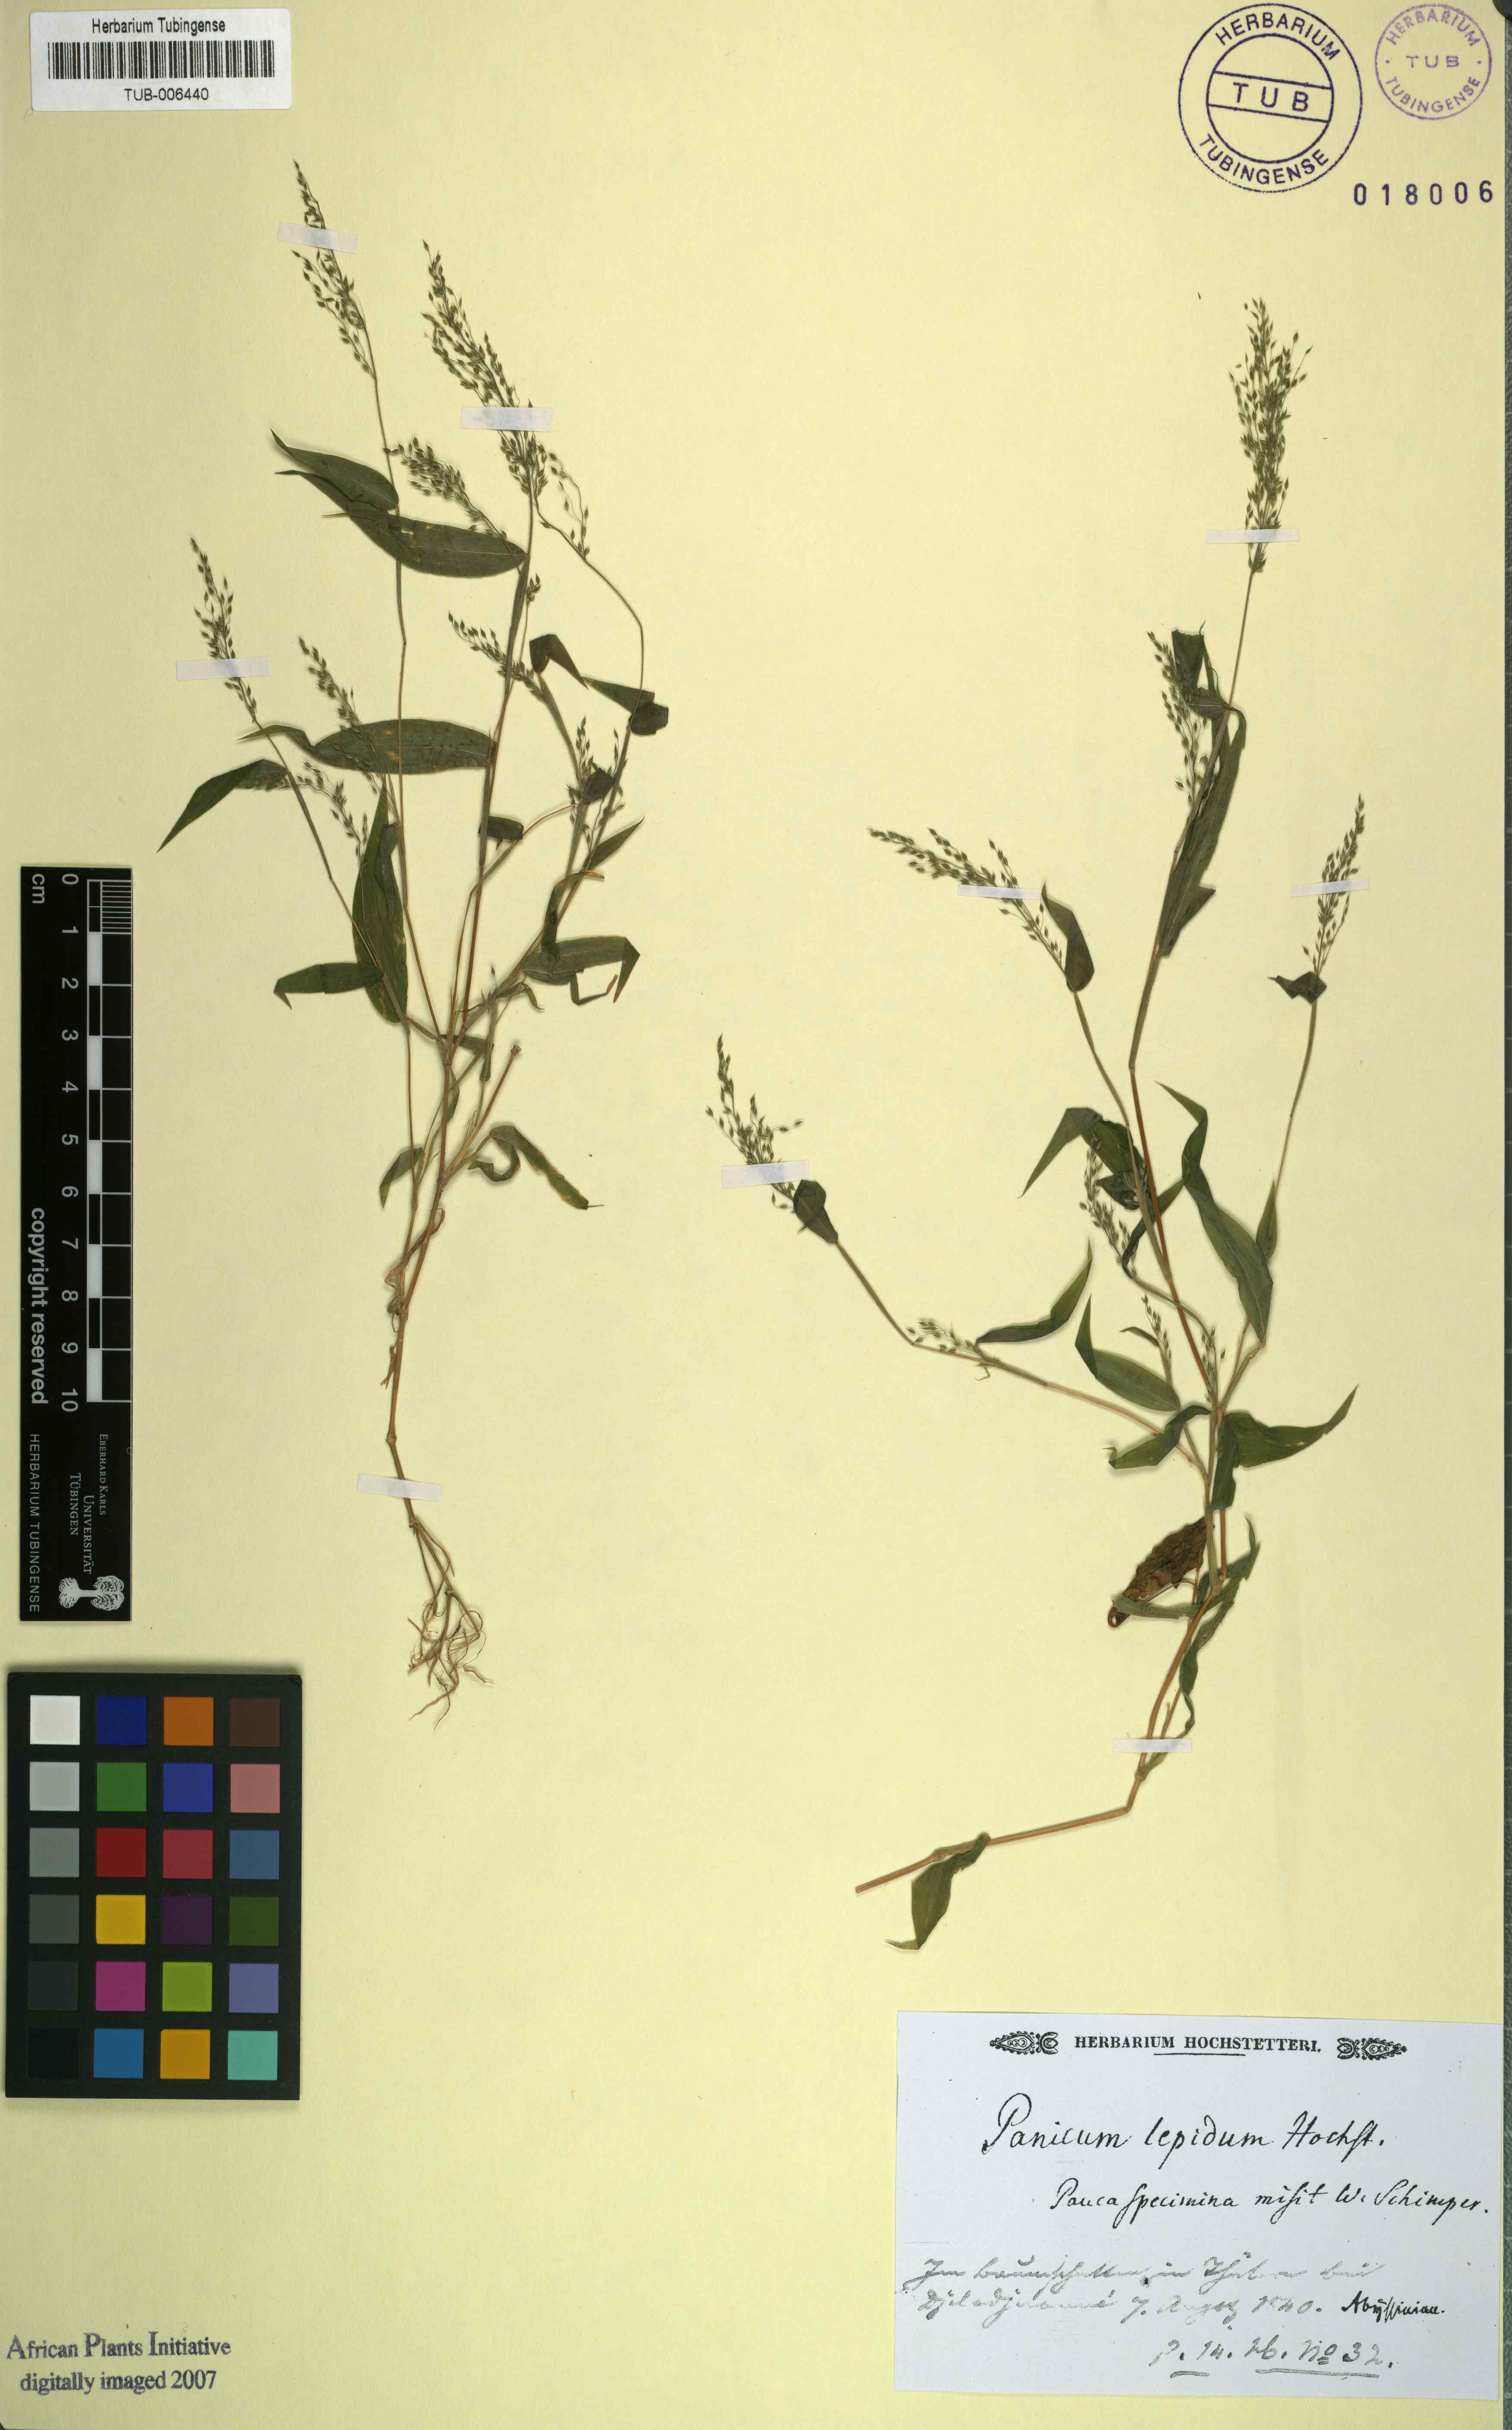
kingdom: Plantae
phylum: Tracheophyta
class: Liliopsida
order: Poales
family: Poaceae
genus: Panicum
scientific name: Panicum delicatulum
